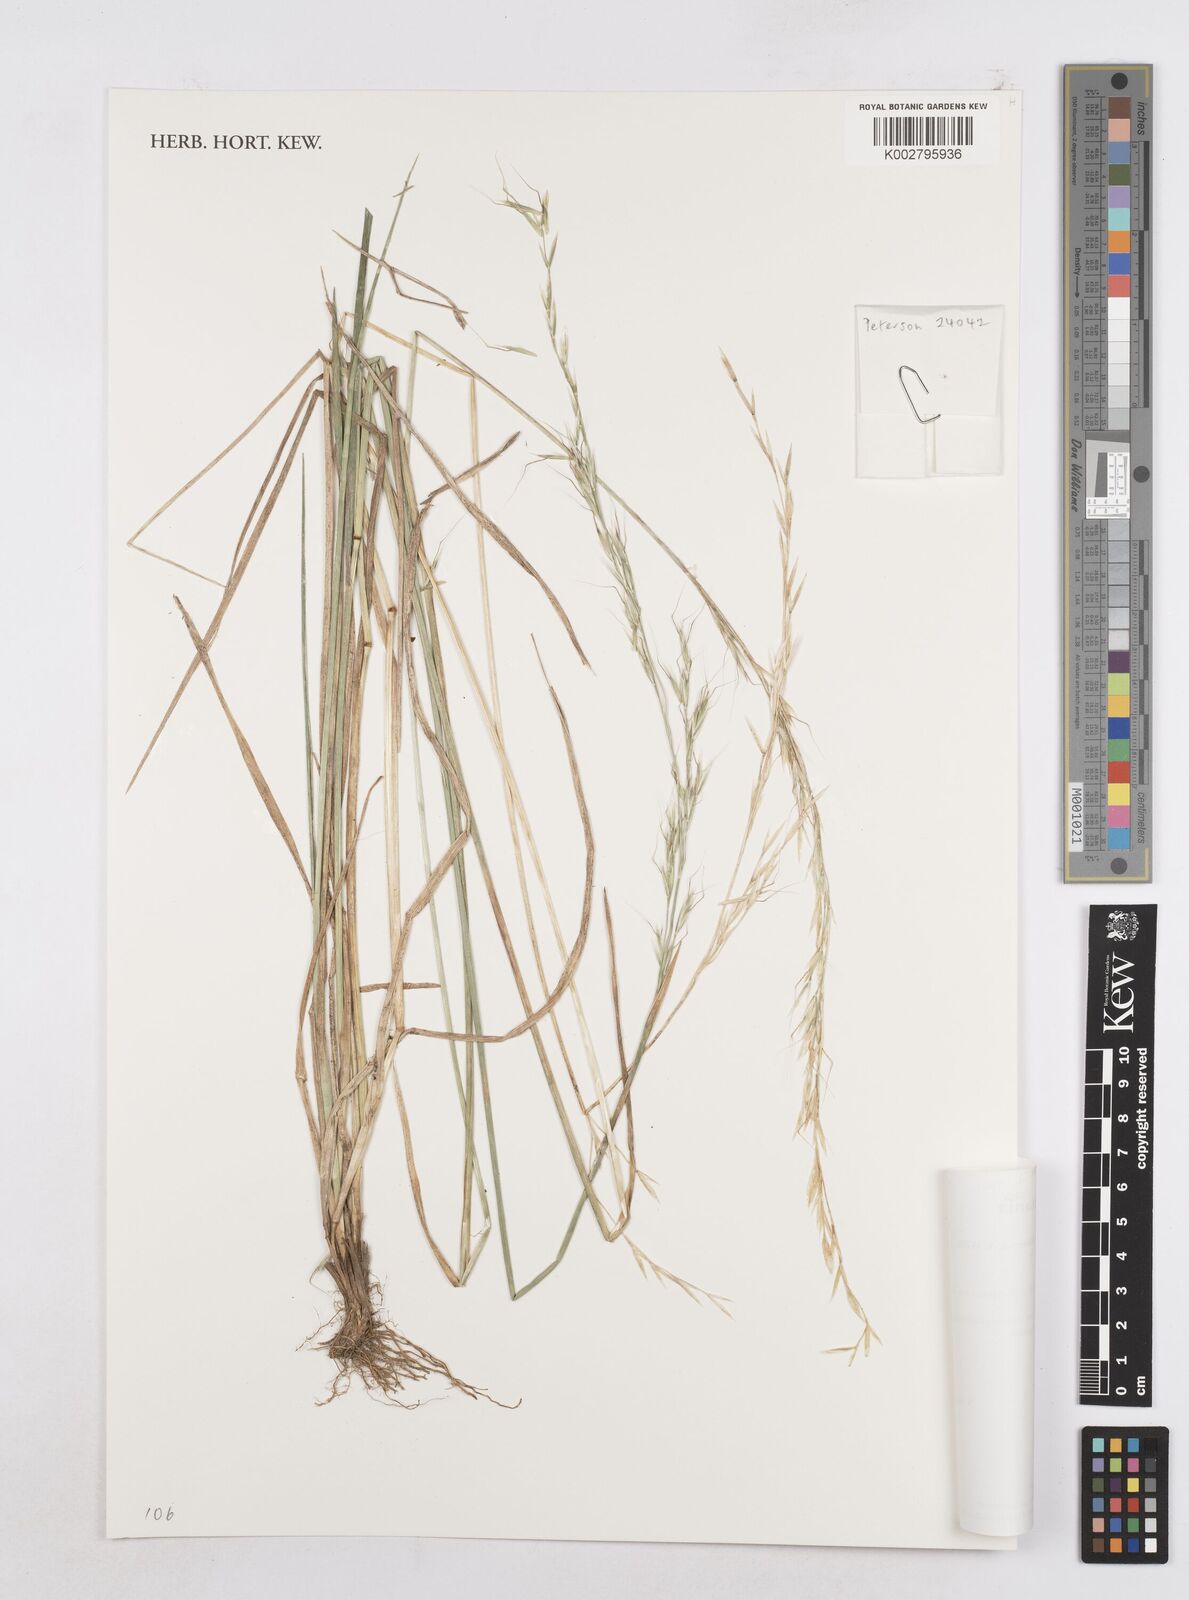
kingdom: Plantae
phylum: Tracheophyta
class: Liliopsida
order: Poales
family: Poaceae
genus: Trisetopsis
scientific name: Trisetopsis elongata
